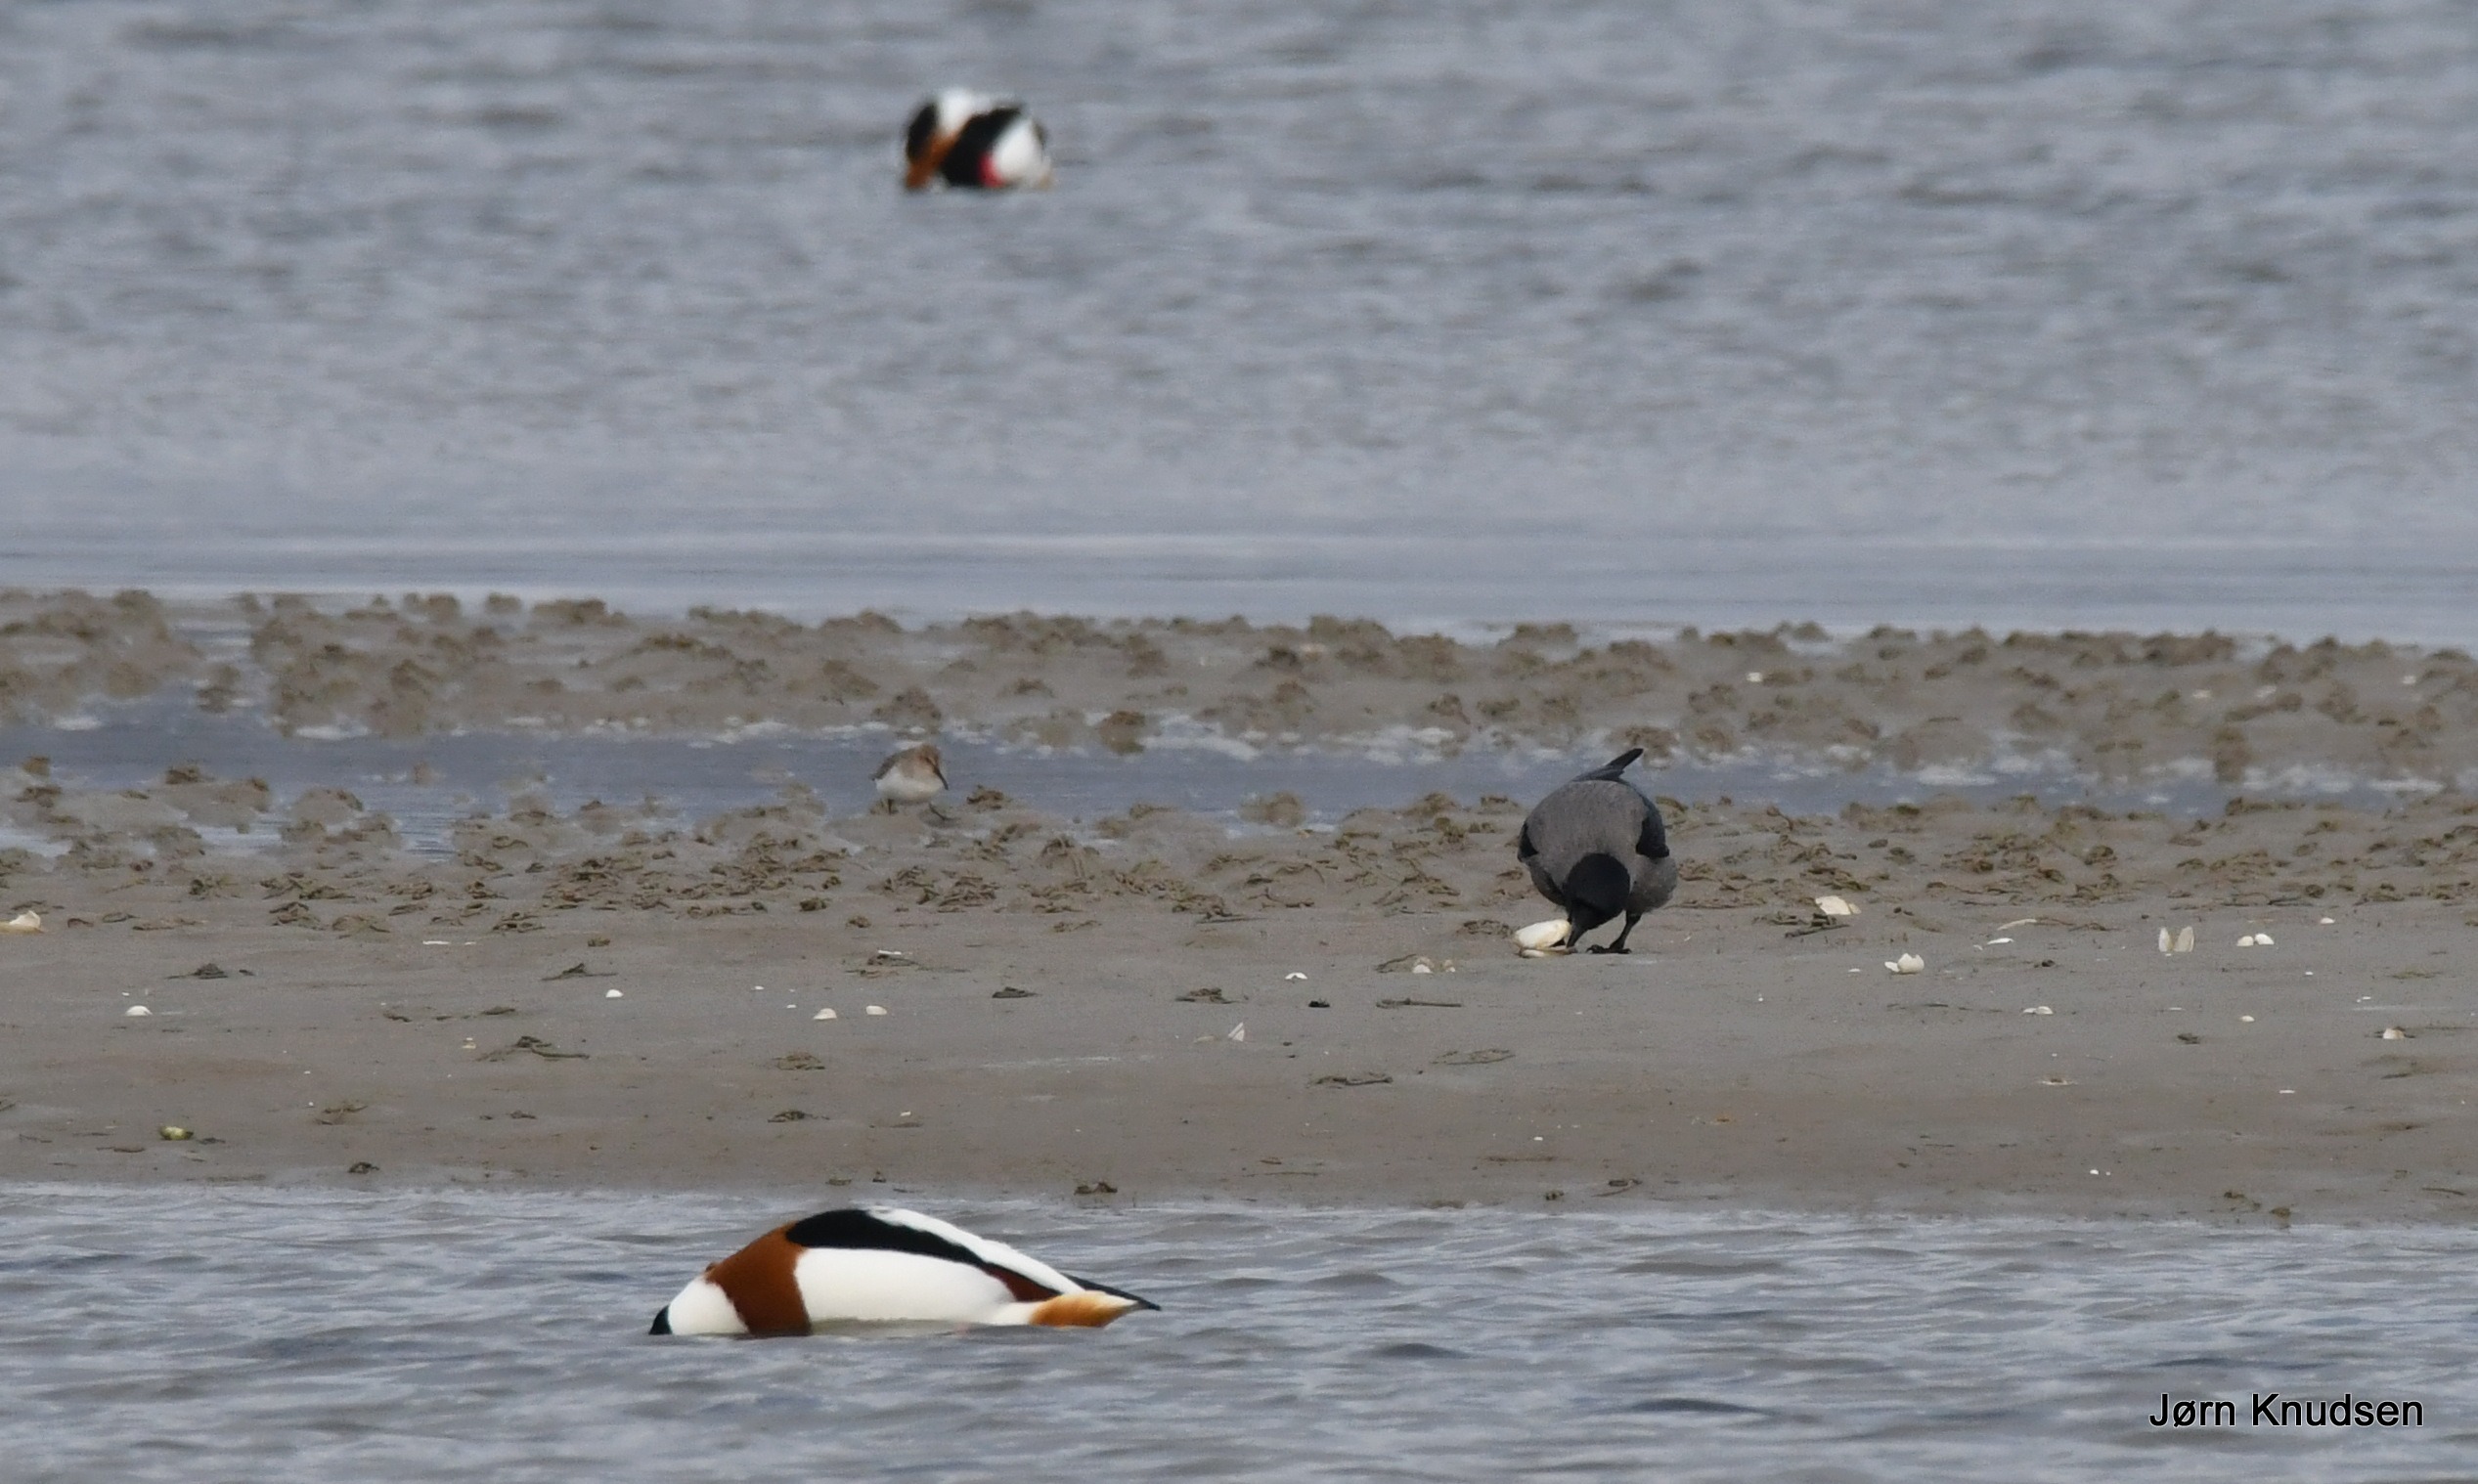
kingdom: Animalia
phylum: Chordata
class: Aves
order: Passeriformes
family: Corvidae
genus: Corvus
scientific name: Corvus cornix
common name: Gråkrage
